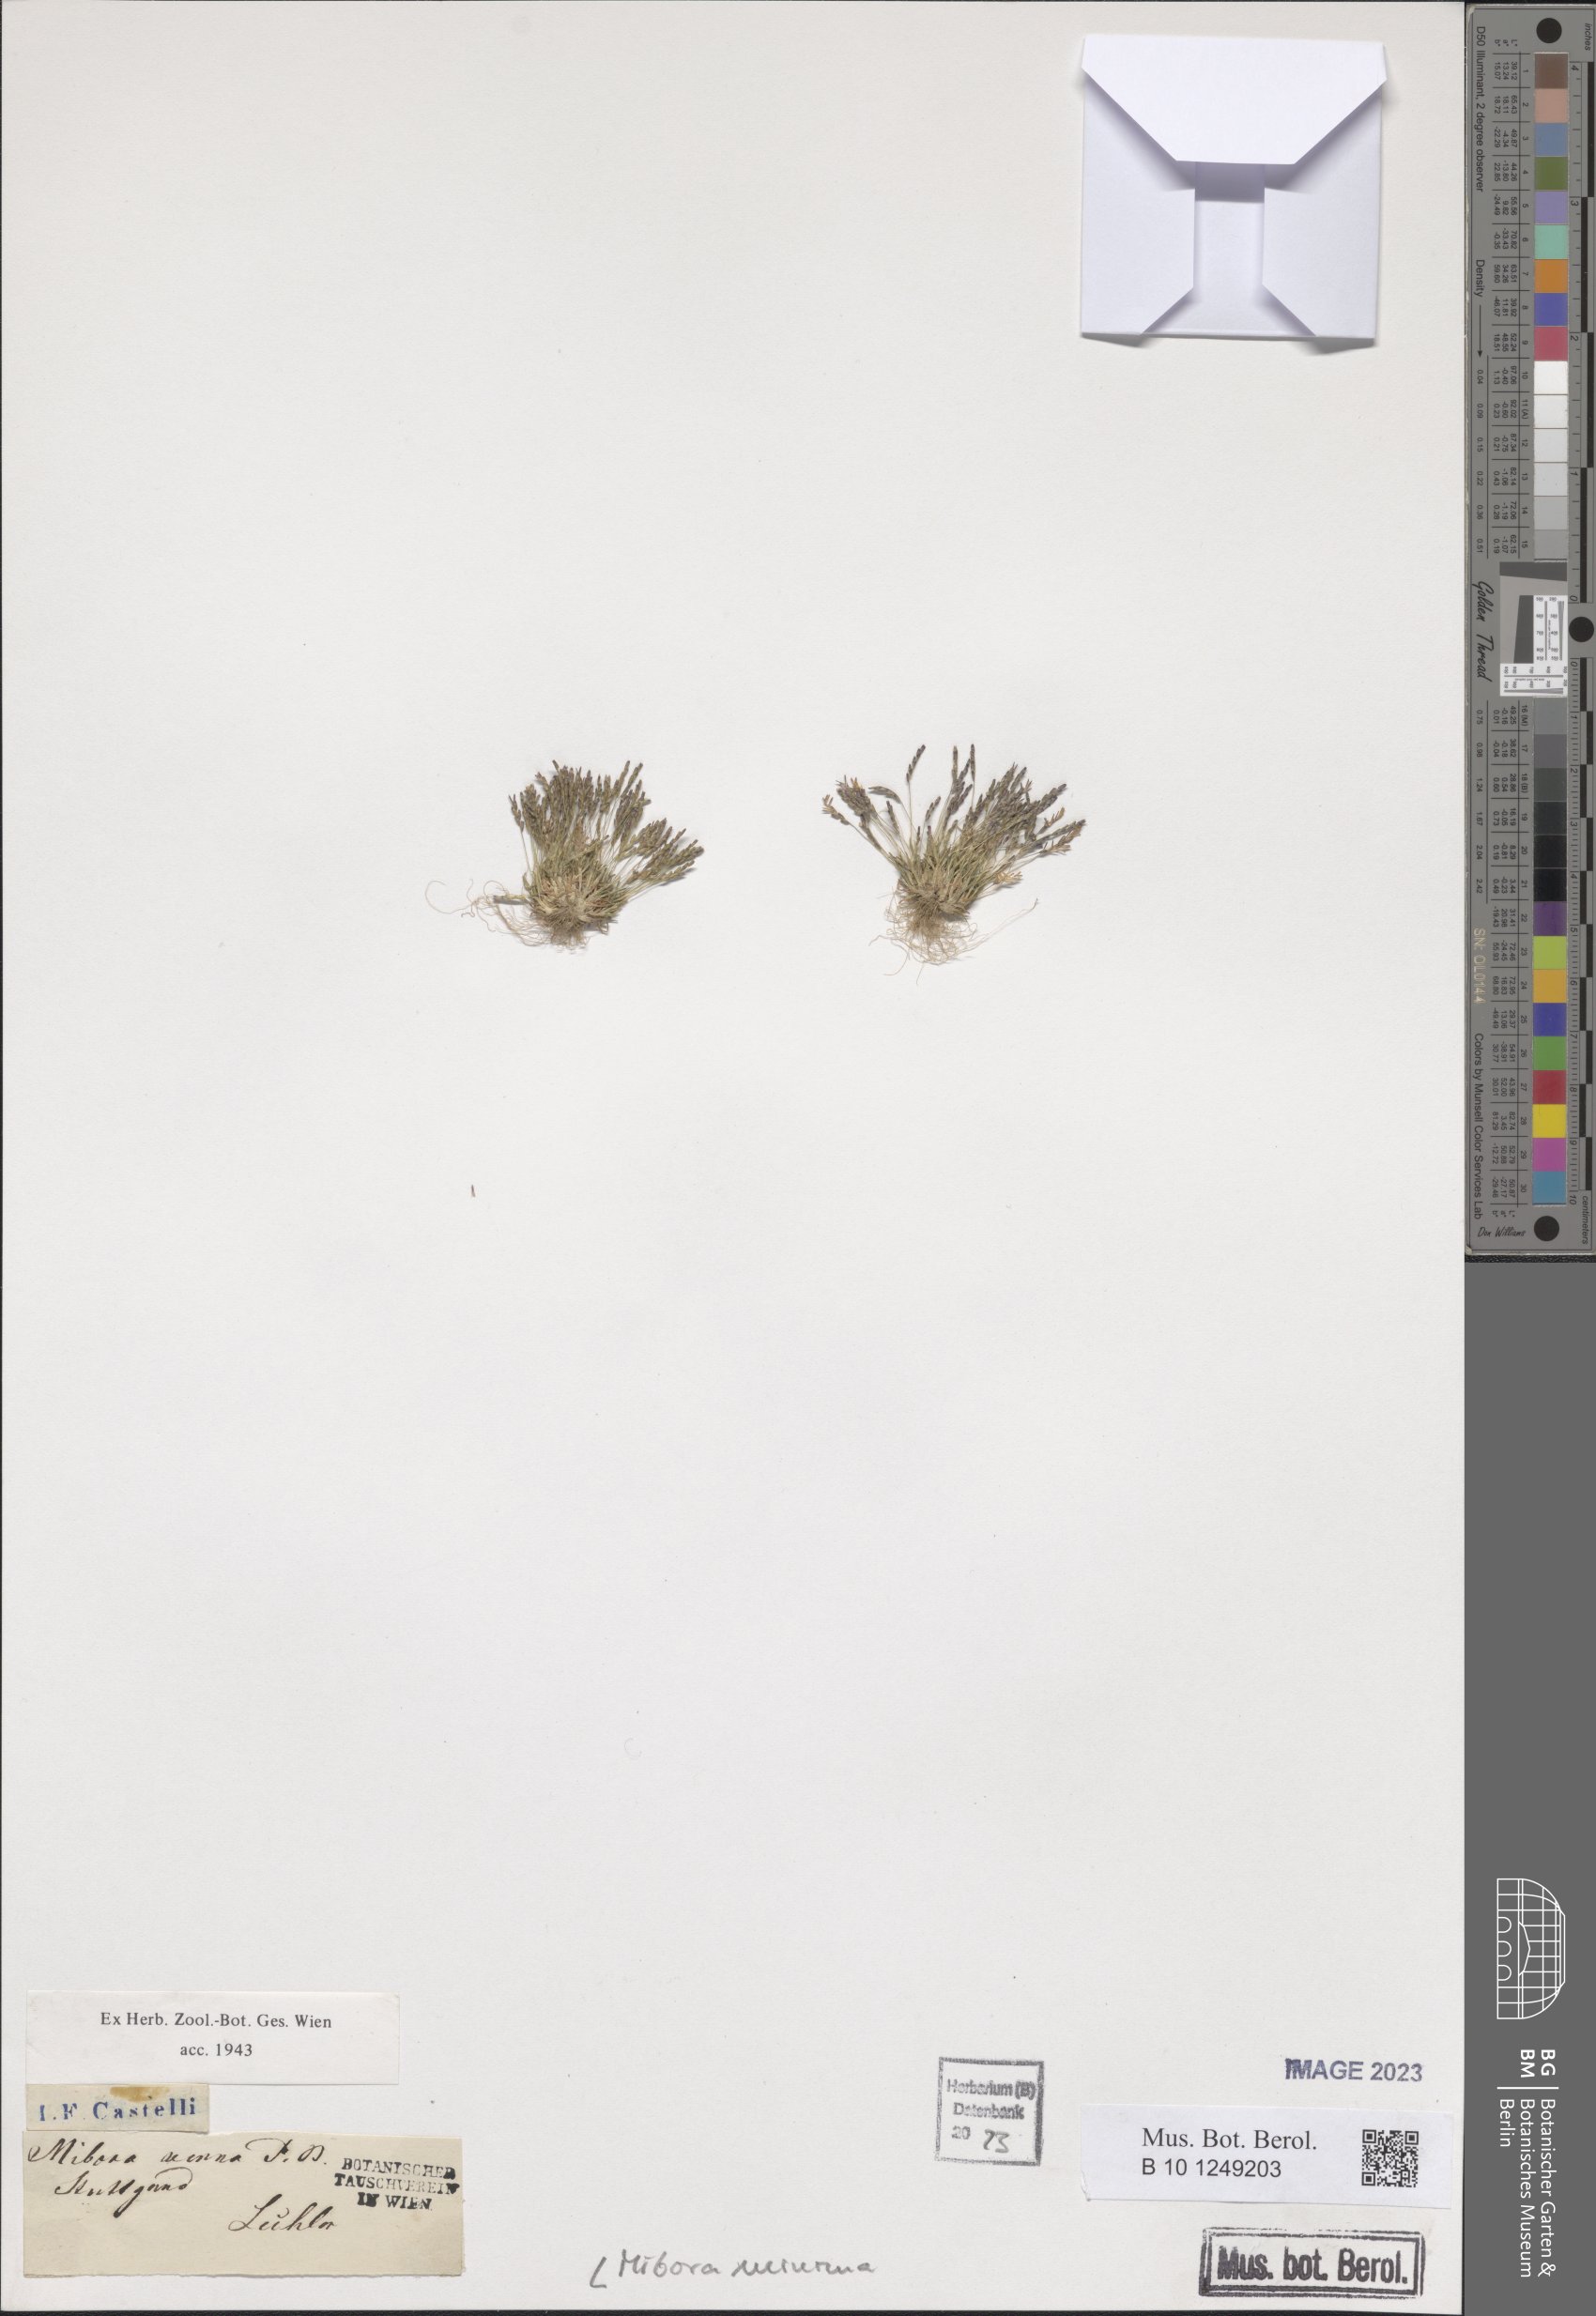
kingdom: Plantae
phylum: Tracheophyta
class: Liliopsida
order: Poales
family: Poaceae
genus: Mibora
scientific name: Mibora minima
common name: Early sand-grass
